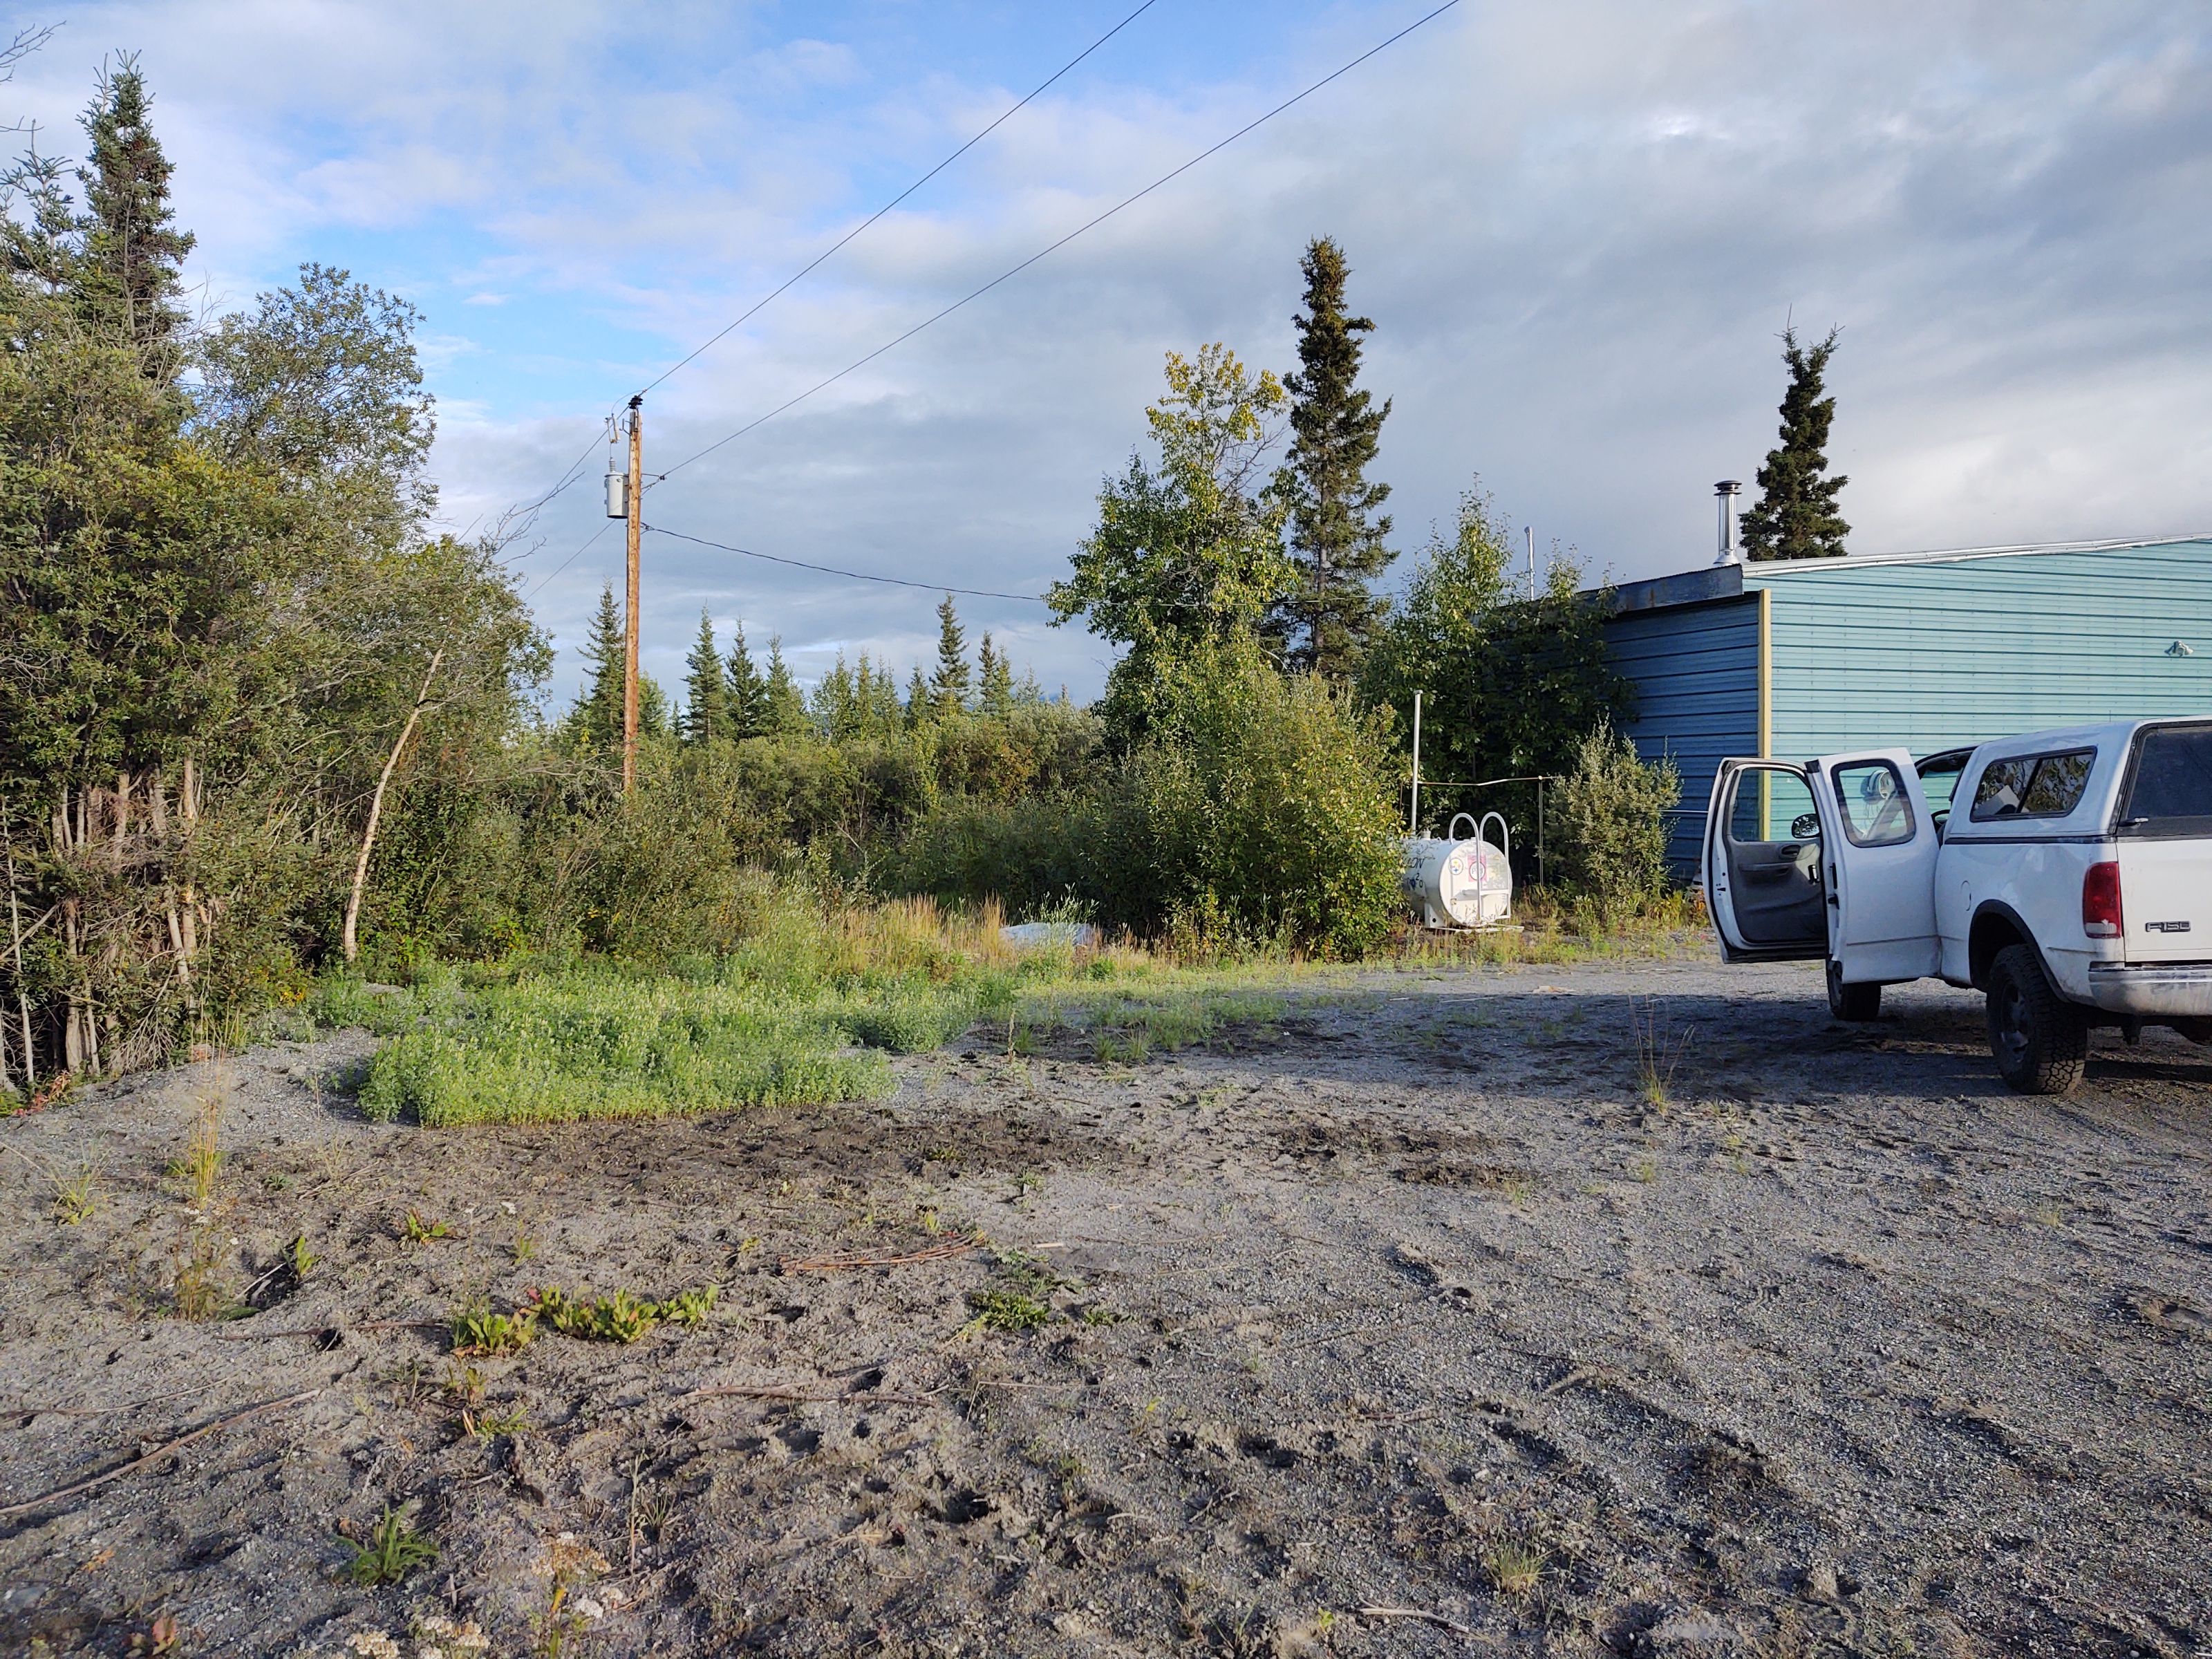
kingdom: Plantae
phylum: Tracheophyta
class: Magnoliopsida
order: Fabales
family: Fabaceae
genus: Melilotus
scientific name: Melilotus albus
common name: White sweetclover
